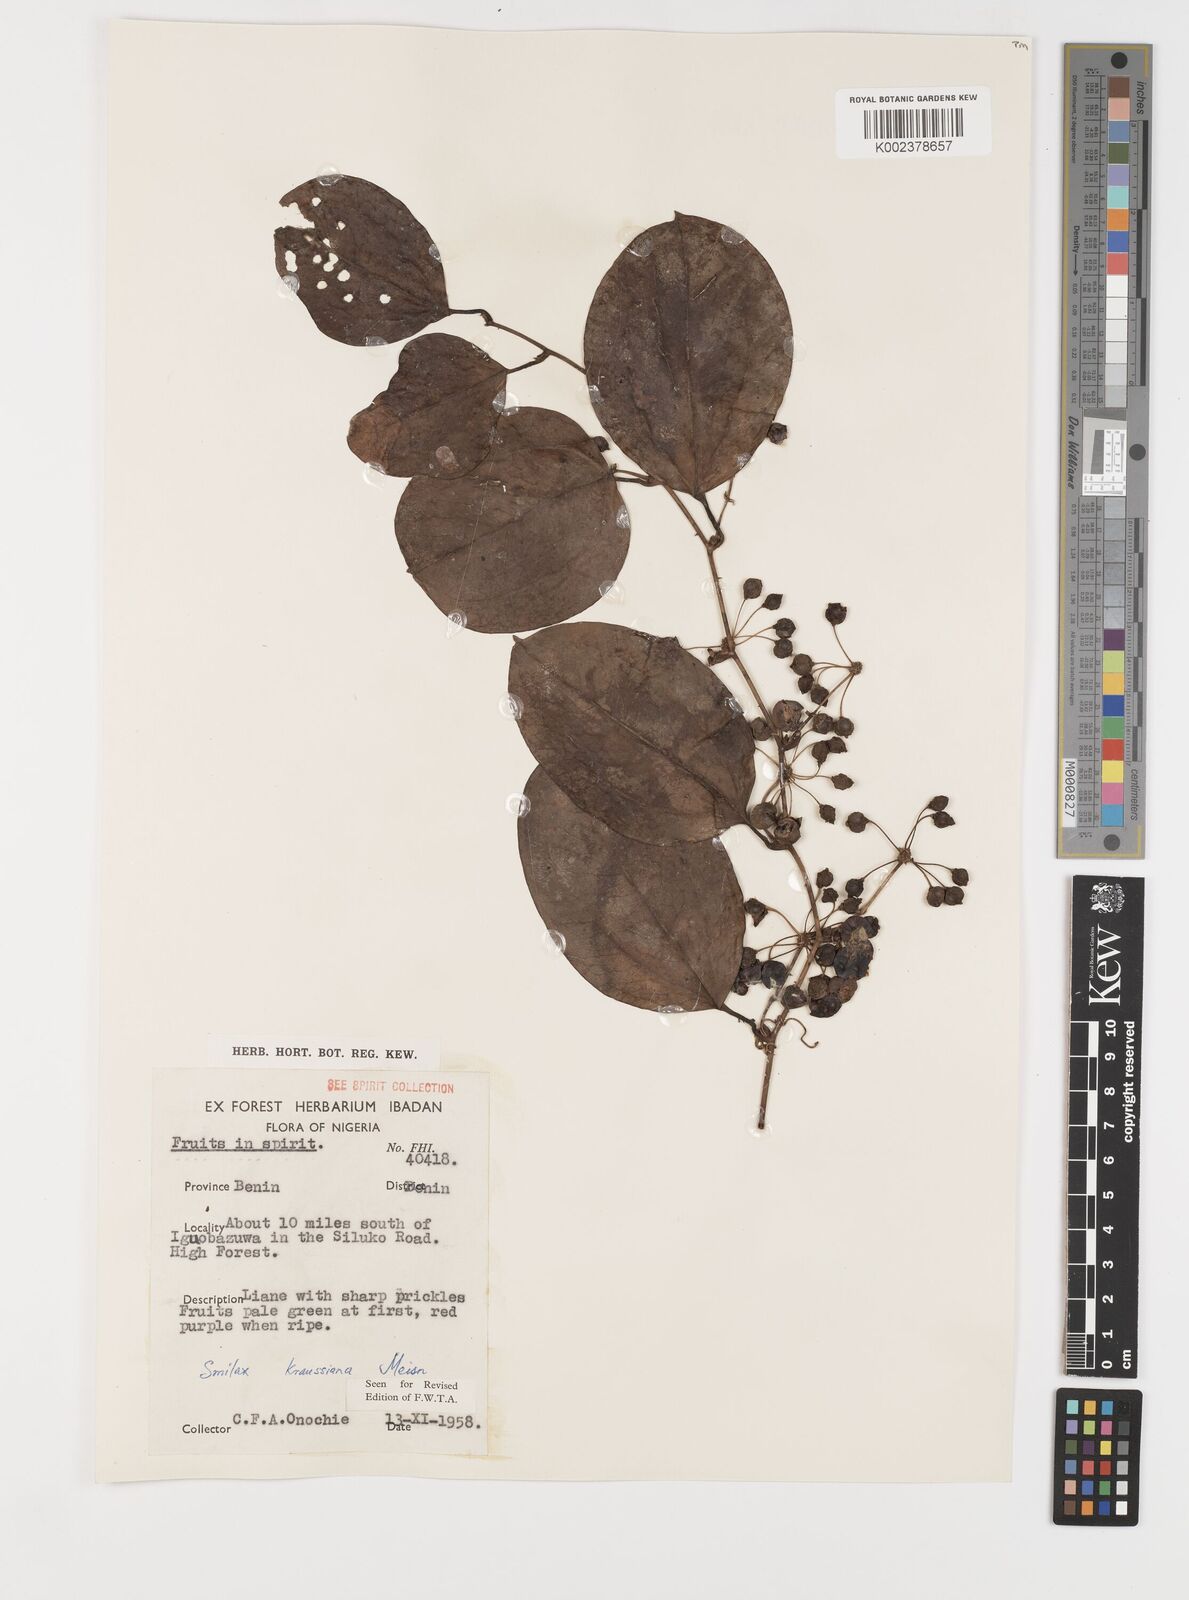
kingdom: Plantae
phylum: Tracheophyta
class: Liliopsida
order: Liliales
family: Smilacaceae
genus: Smilax
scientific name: Smilax anceps
